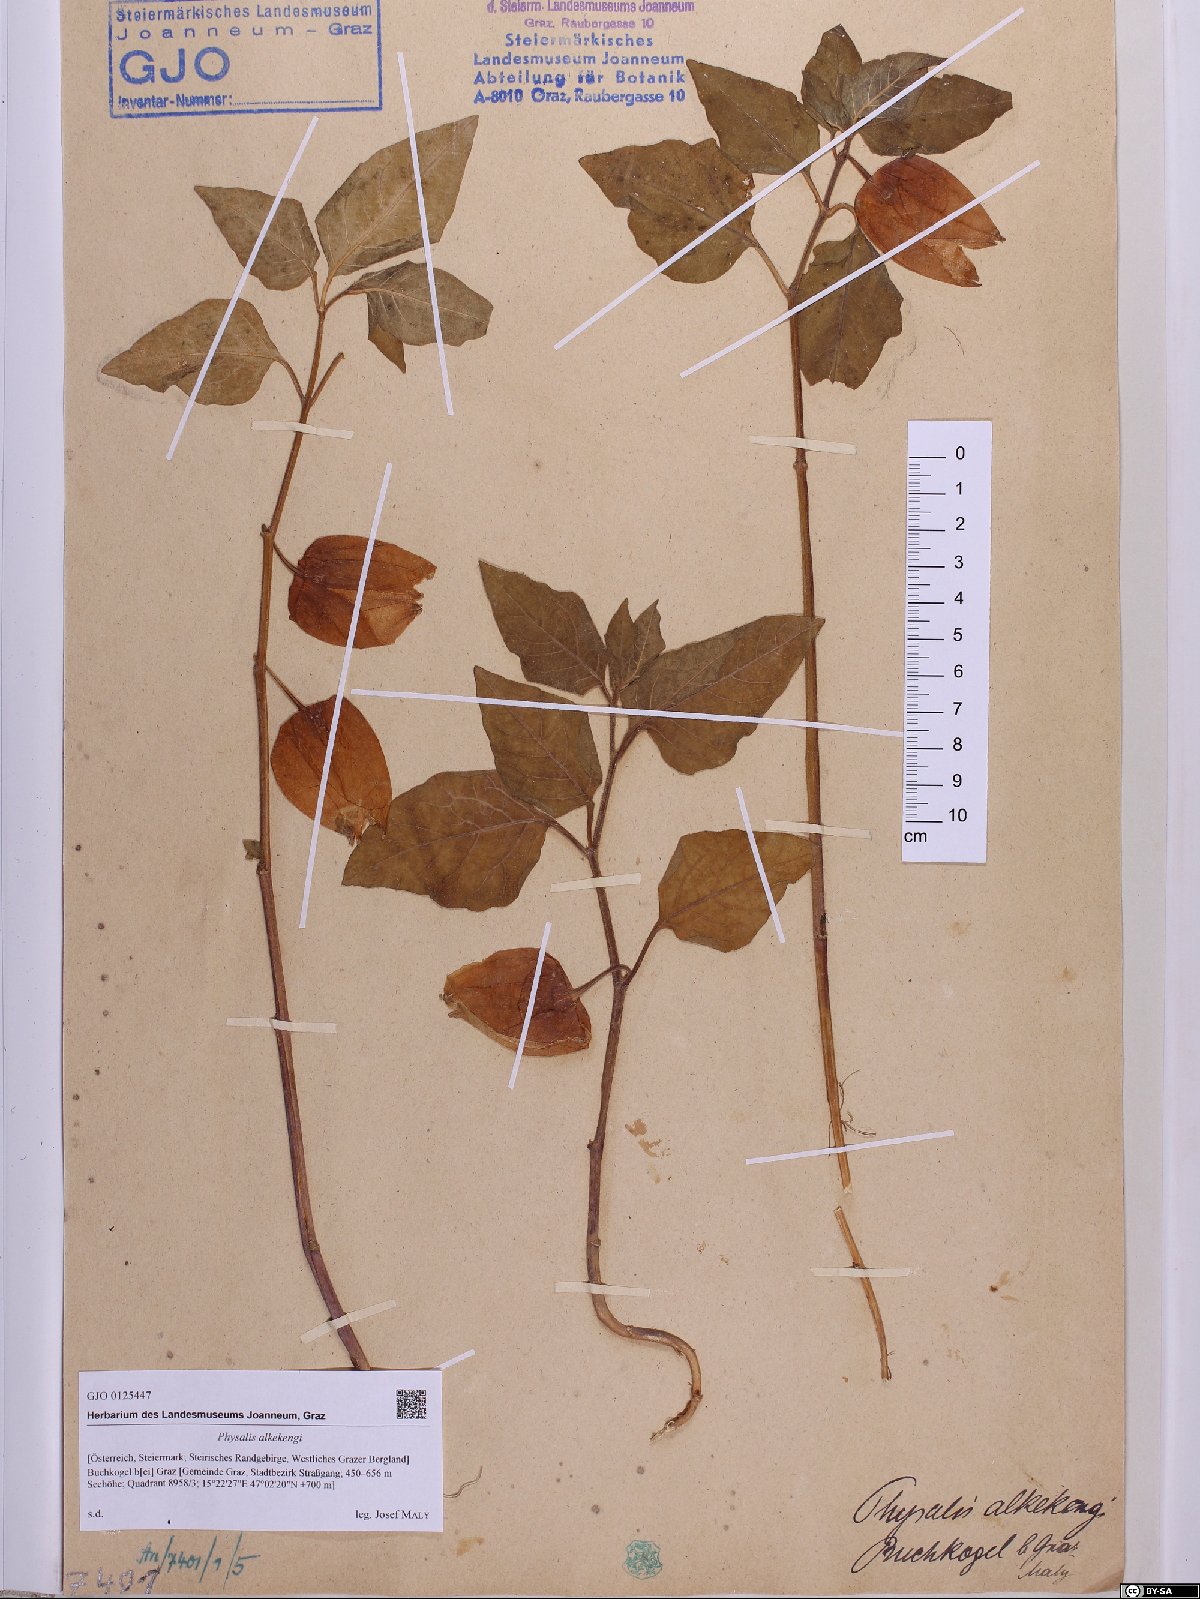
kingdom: Plantae
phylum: Tracheophyta
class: Magnoliopsida
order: Solanales
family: Solanaceae
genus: Alkekengi
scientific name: Alkekengi officinarum
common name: Japanese-lantern
